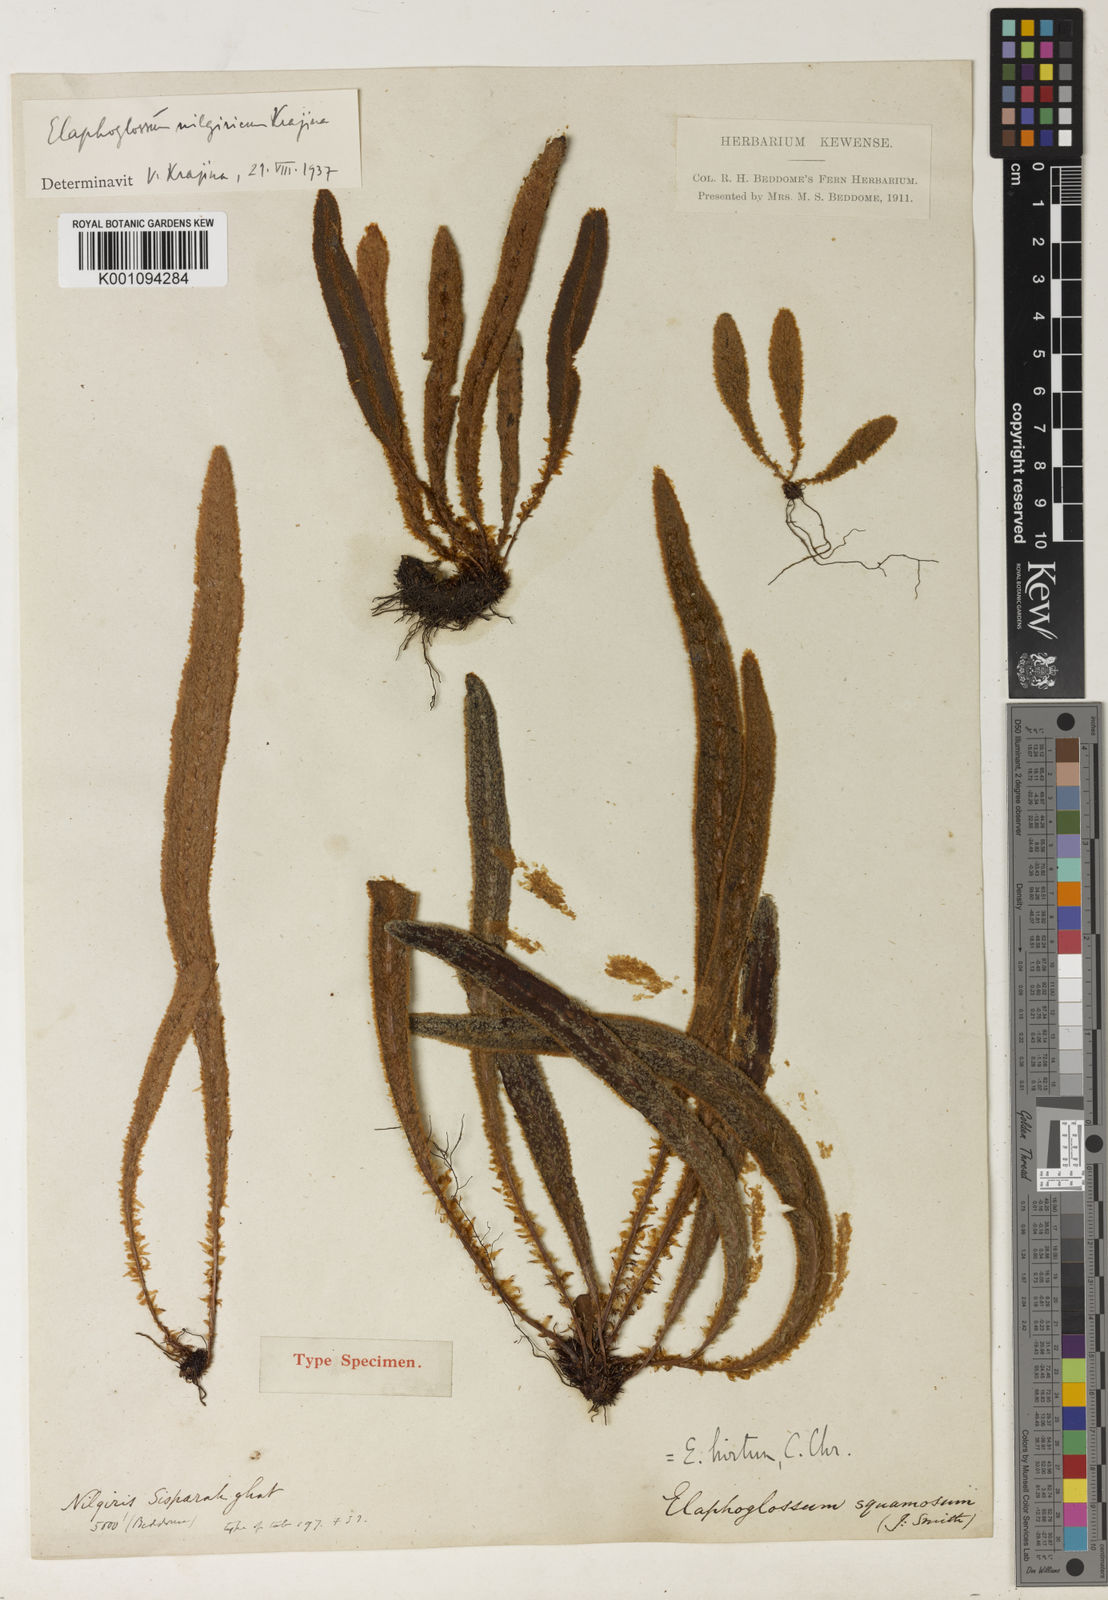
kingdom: Plantae
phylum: Tracheophyta
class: Polypodiopsida
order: Polypodiales
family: Dryopteridaceae
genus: Elaphoglossum
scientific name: Elaphoglossum nilgiricum
